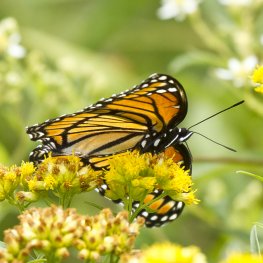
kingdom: Animalia
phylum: Arthropoda
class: Insecta
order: Lepidoptera
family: Nymphalidae
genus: Limenitis
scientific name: Limenitis archippus
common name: Viceroy
